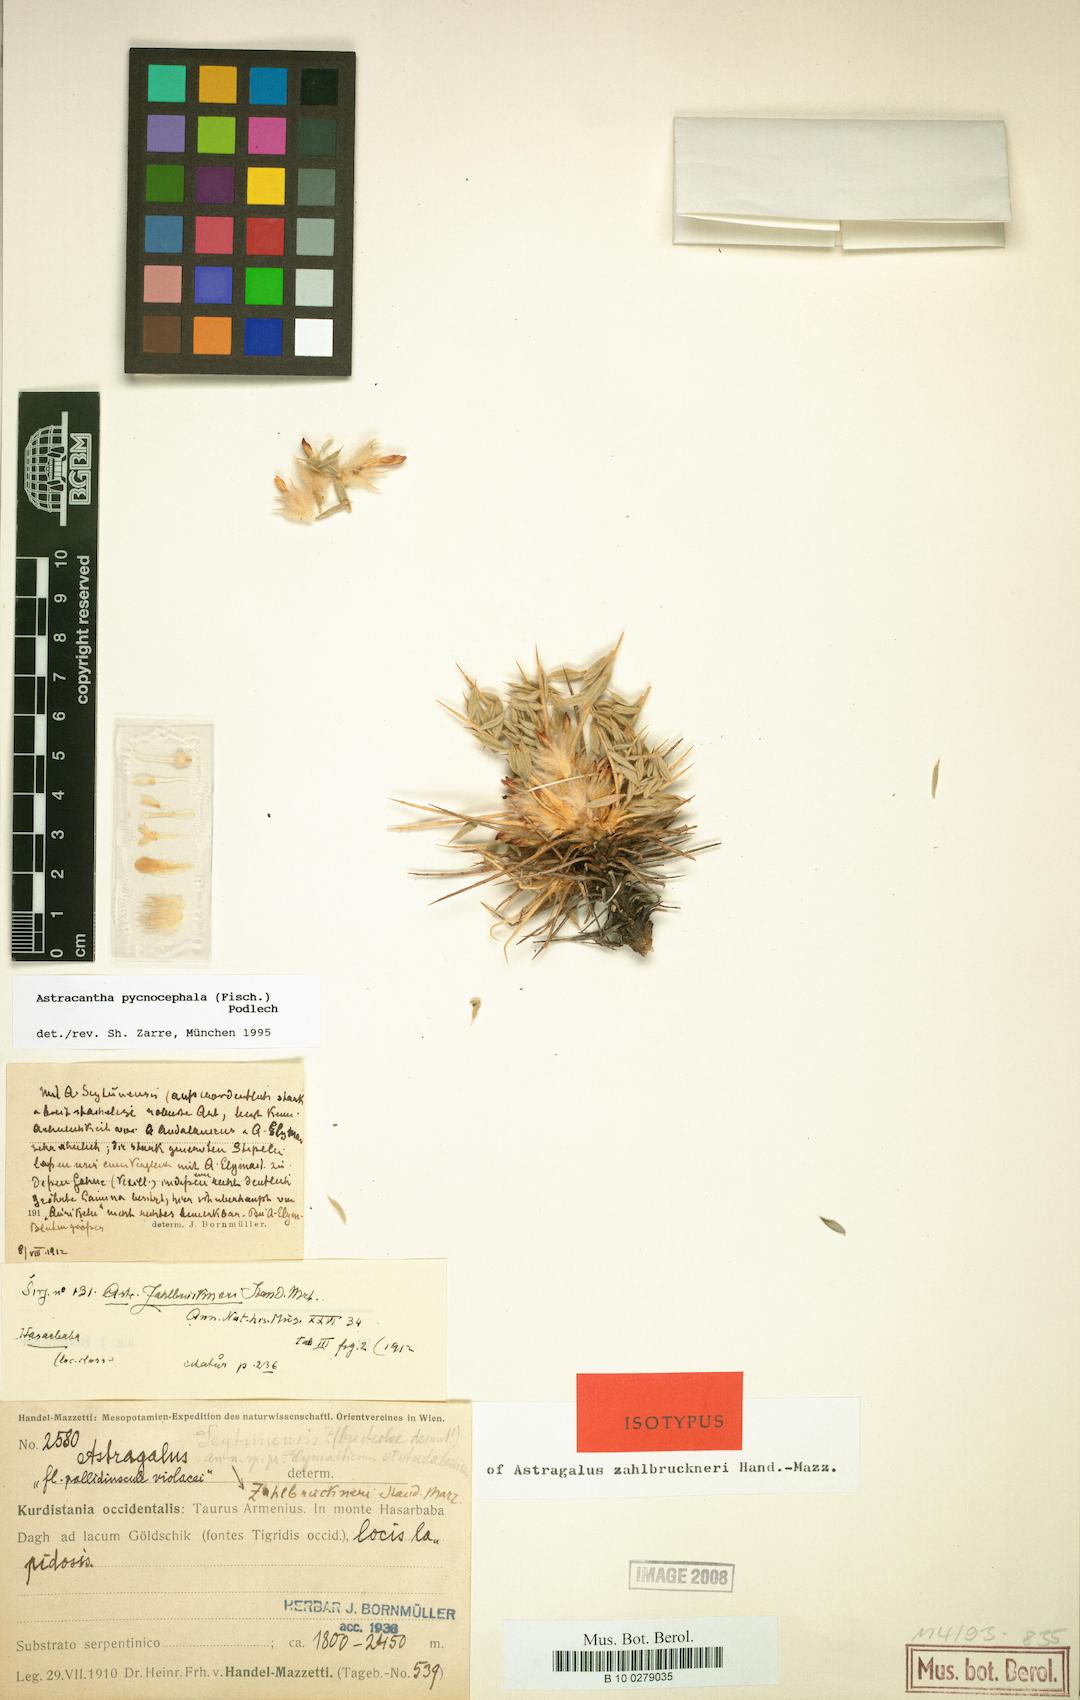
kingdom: Plantae
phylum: Tracheophyta
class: Magnoliopsida
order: Fabales
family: Fabaceae
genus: Astragalus
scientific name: Astragalus pycnocephalus
